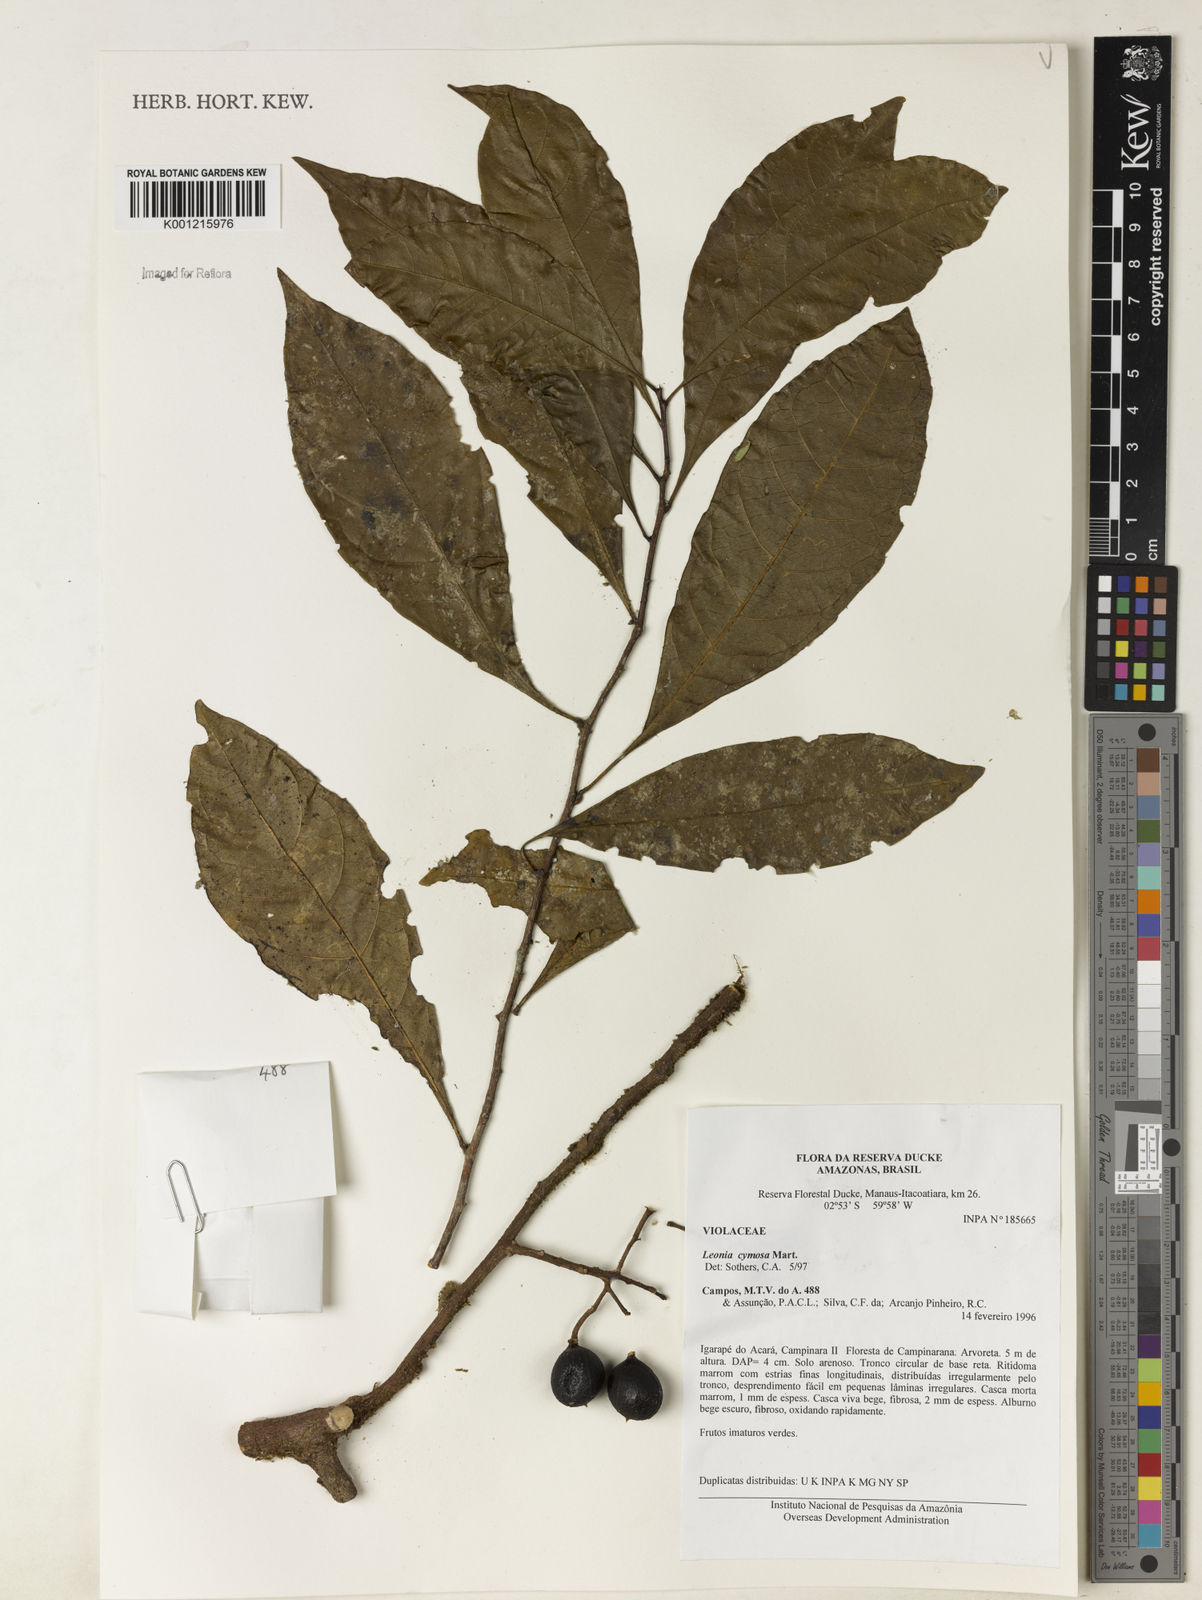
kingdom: Plantae
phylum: Tracheophyta
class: Magnoliopsida
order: Malpighiales
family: Violaceae
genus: Leonia
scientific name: Leonia cymosa
